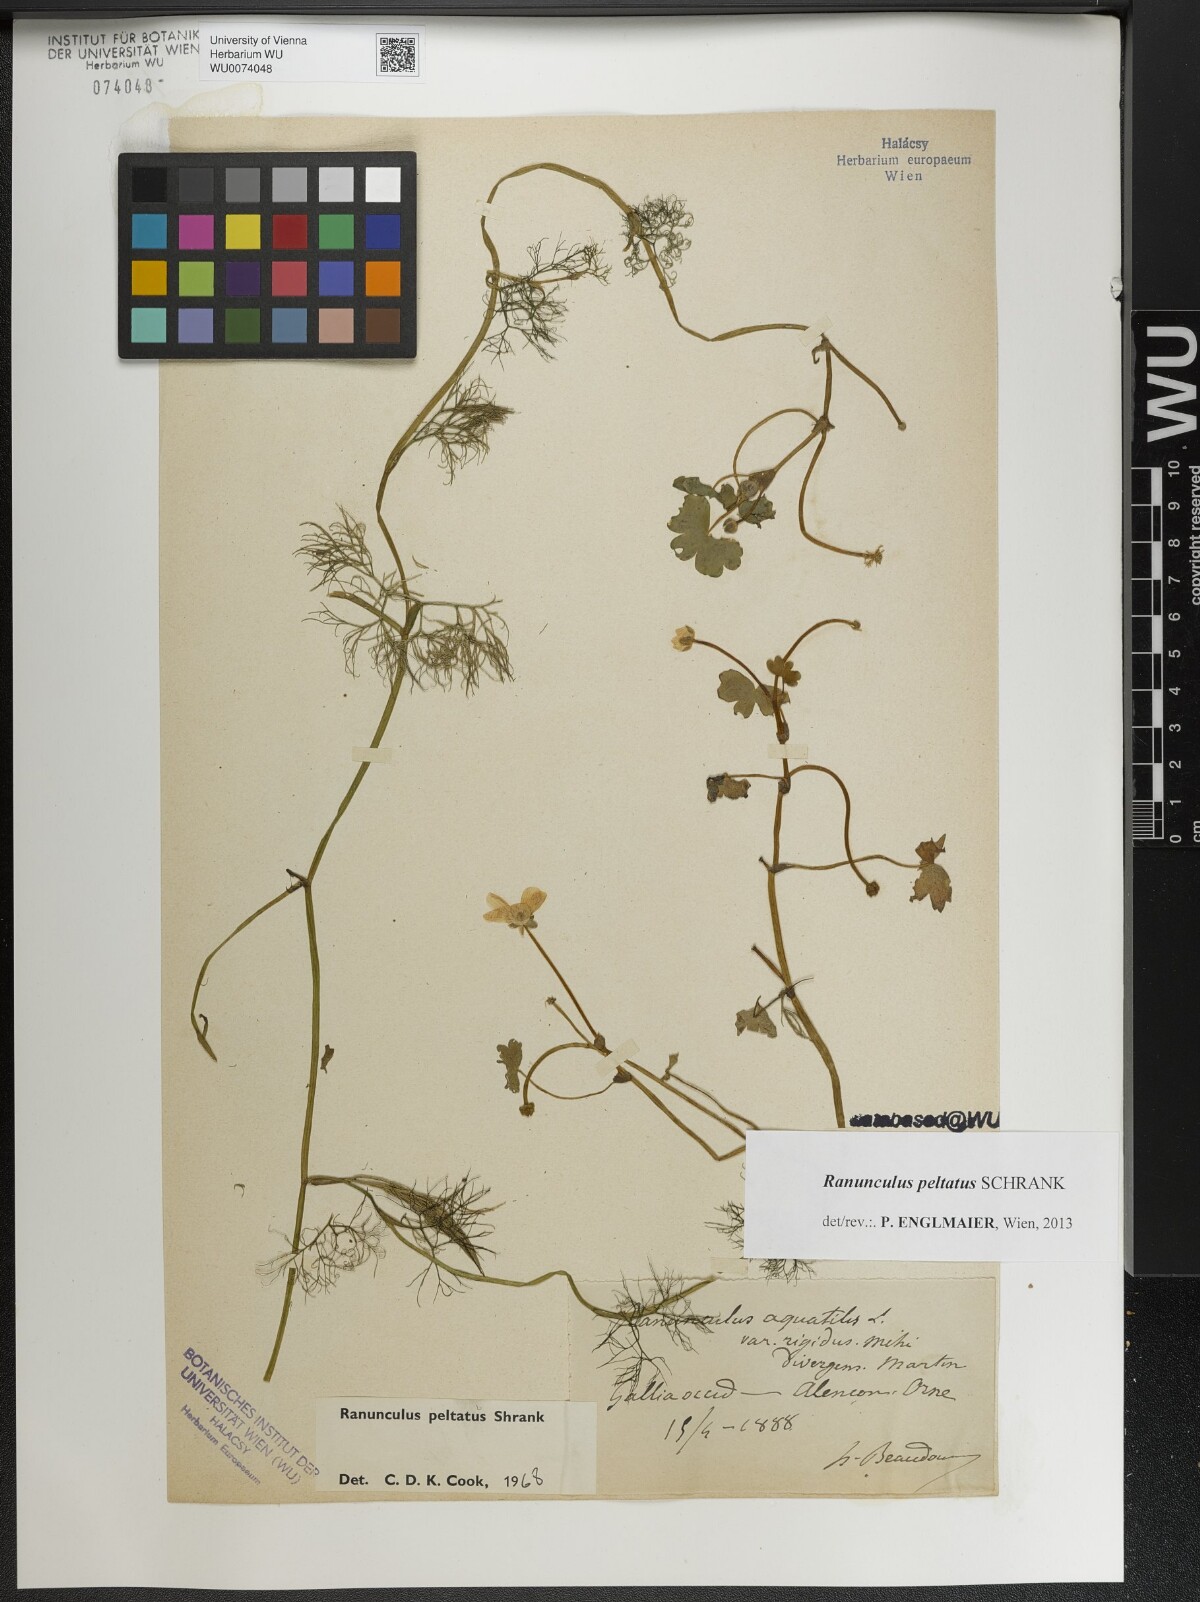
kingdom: Plantae
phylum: Tracheophyta
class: Magnoliopsida
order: Ranunculales
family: Ranunculaceae
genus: Ranunculus
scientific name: Ranunculus peltatus
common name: Pond water-crowfoot
